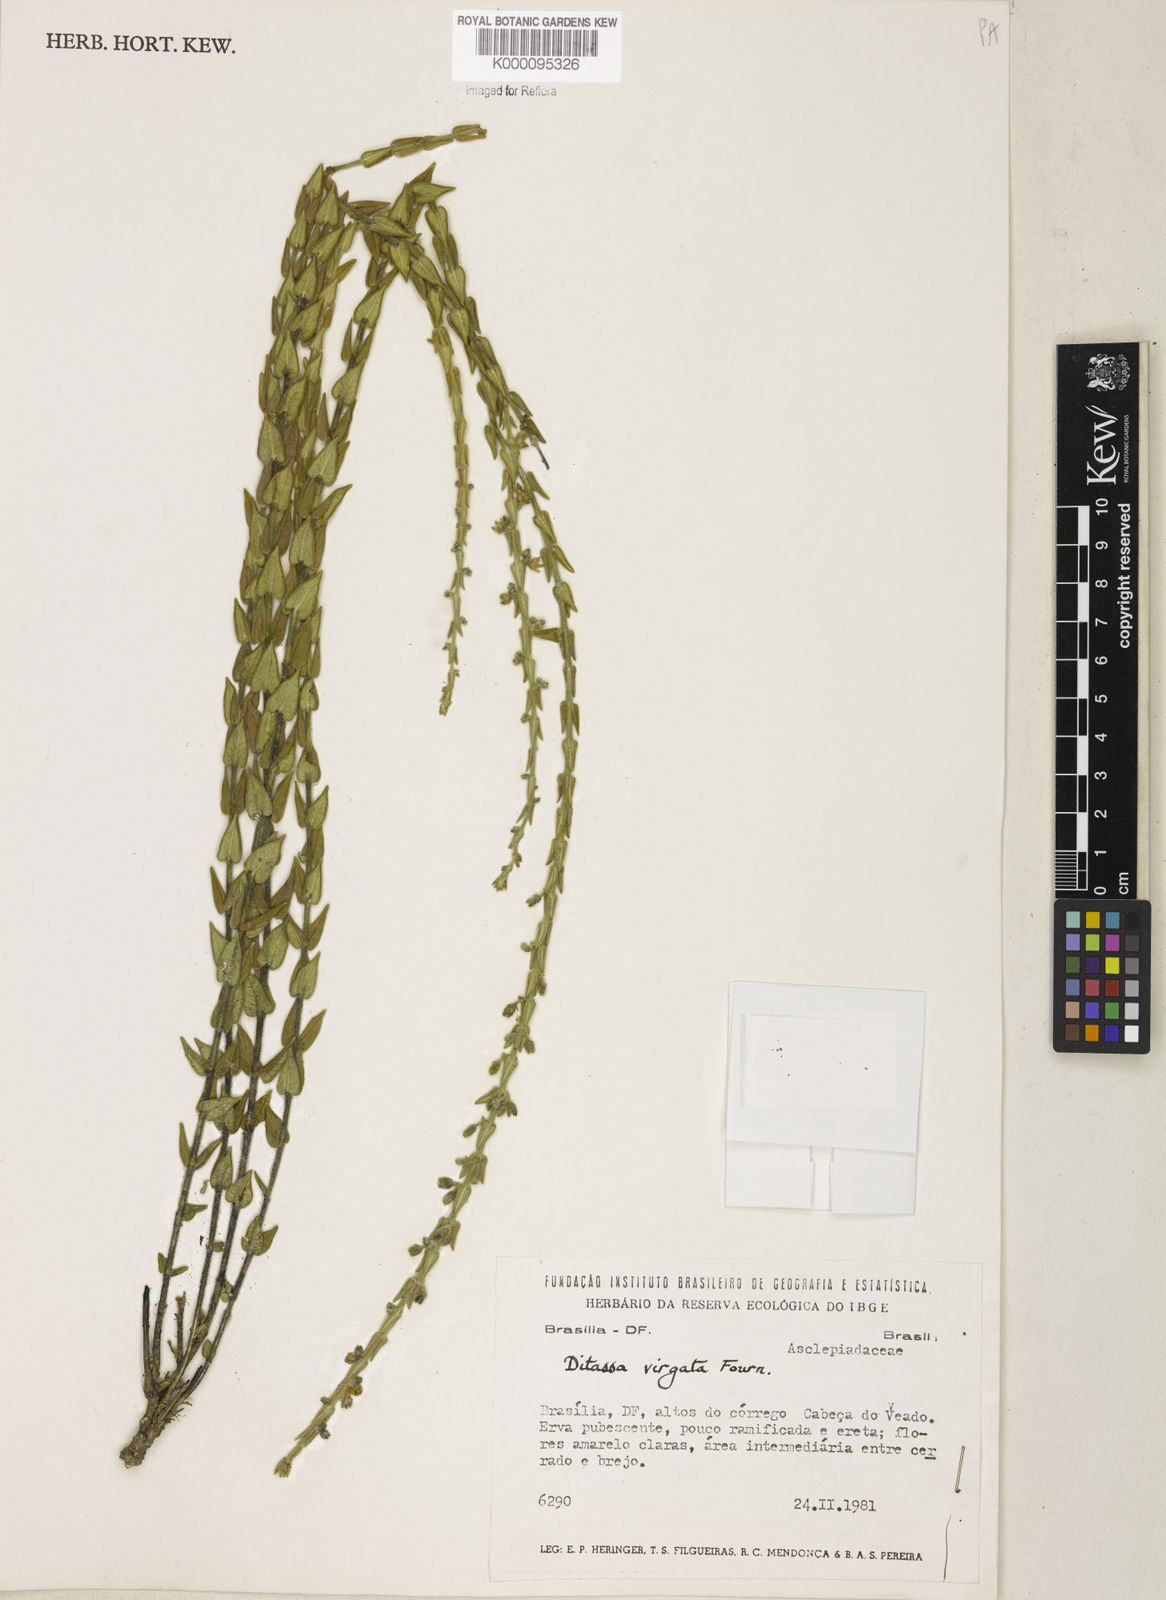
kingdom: Plantae
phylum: Tracheophyta
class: Magnoliopsida
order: Gentianales
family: Apocynaceae
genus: Minaria
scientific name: Minaria cordata
